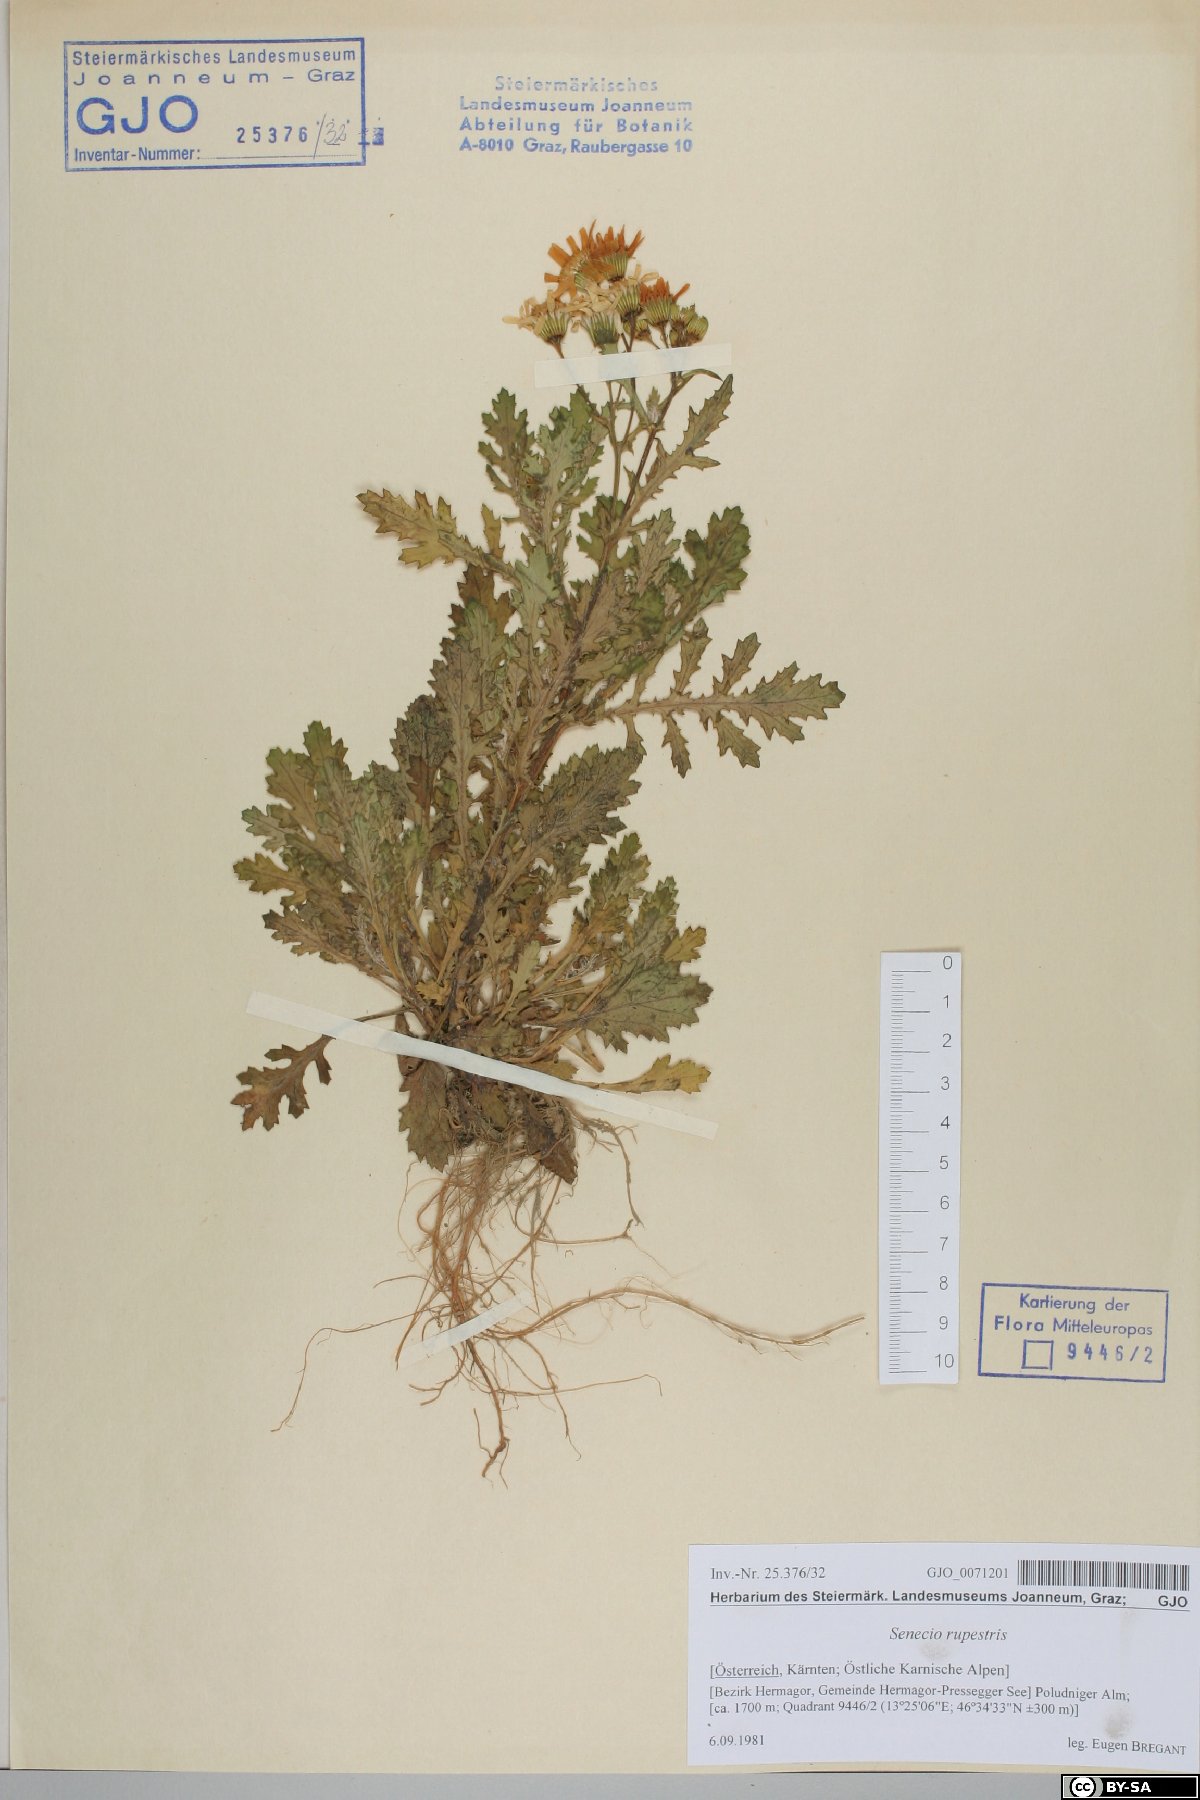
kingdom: Plantae
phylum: Tracheophyta
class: Magnoliopsida
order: Asterales
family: Asteraceae
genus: Senecio
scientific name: Senecio rupestris
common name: Rock ragwort
